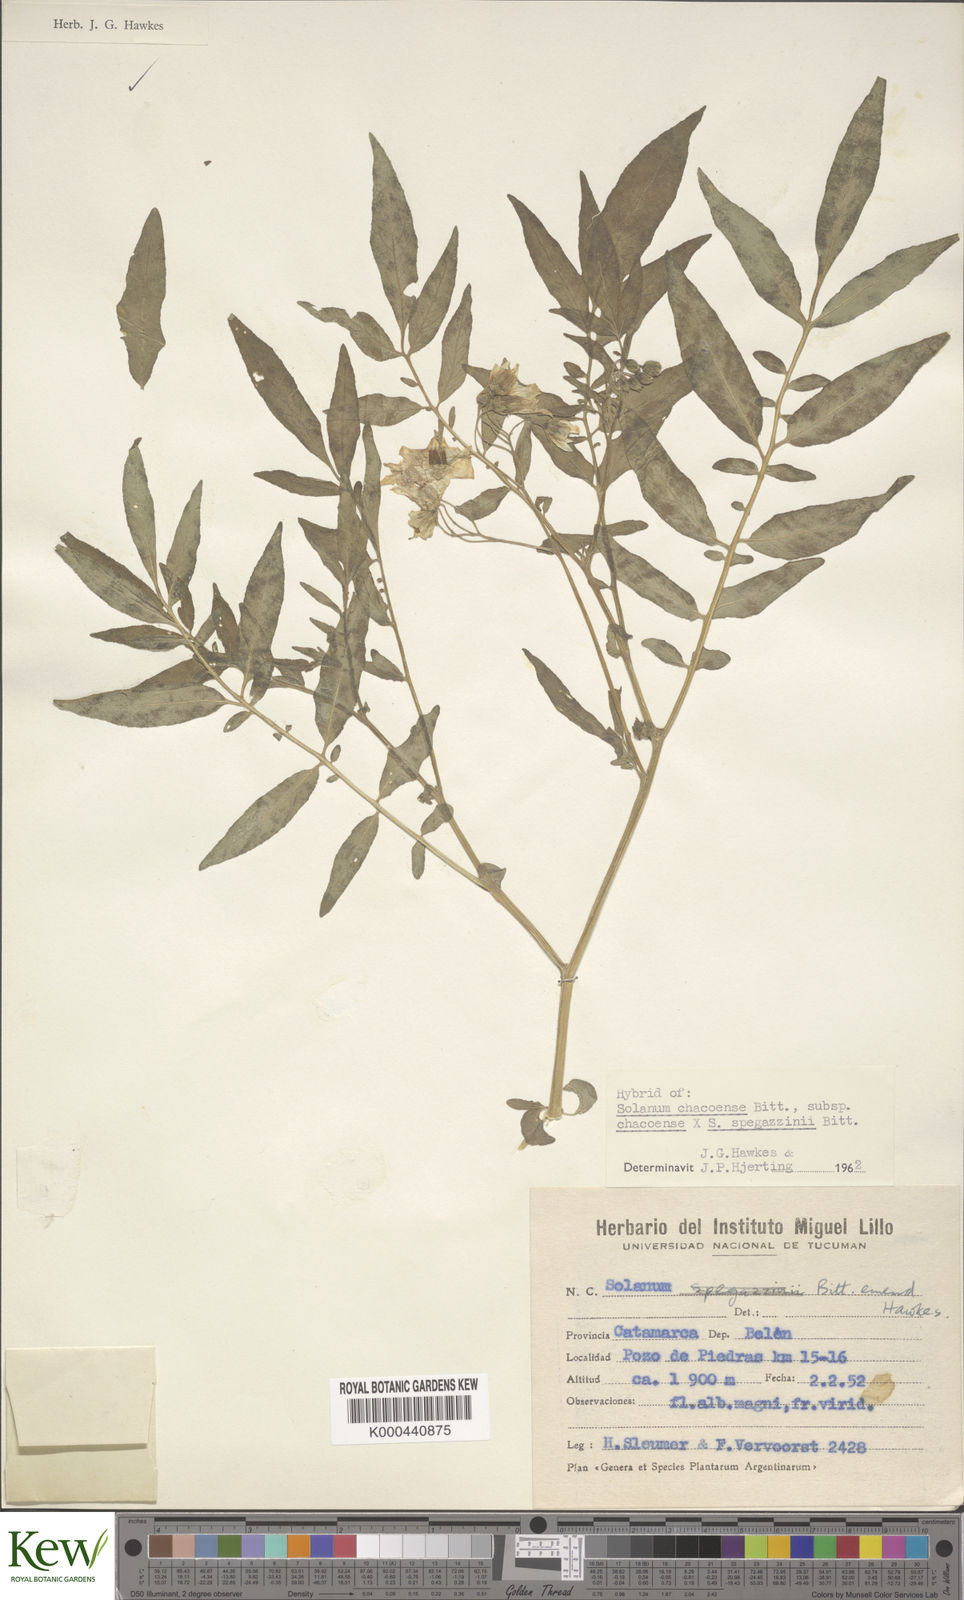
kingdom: Plantae
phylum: Tracheophyta
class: Magnoliopsida
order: Solanales
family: Solanaceae
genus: Solanum
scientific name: Solanum
